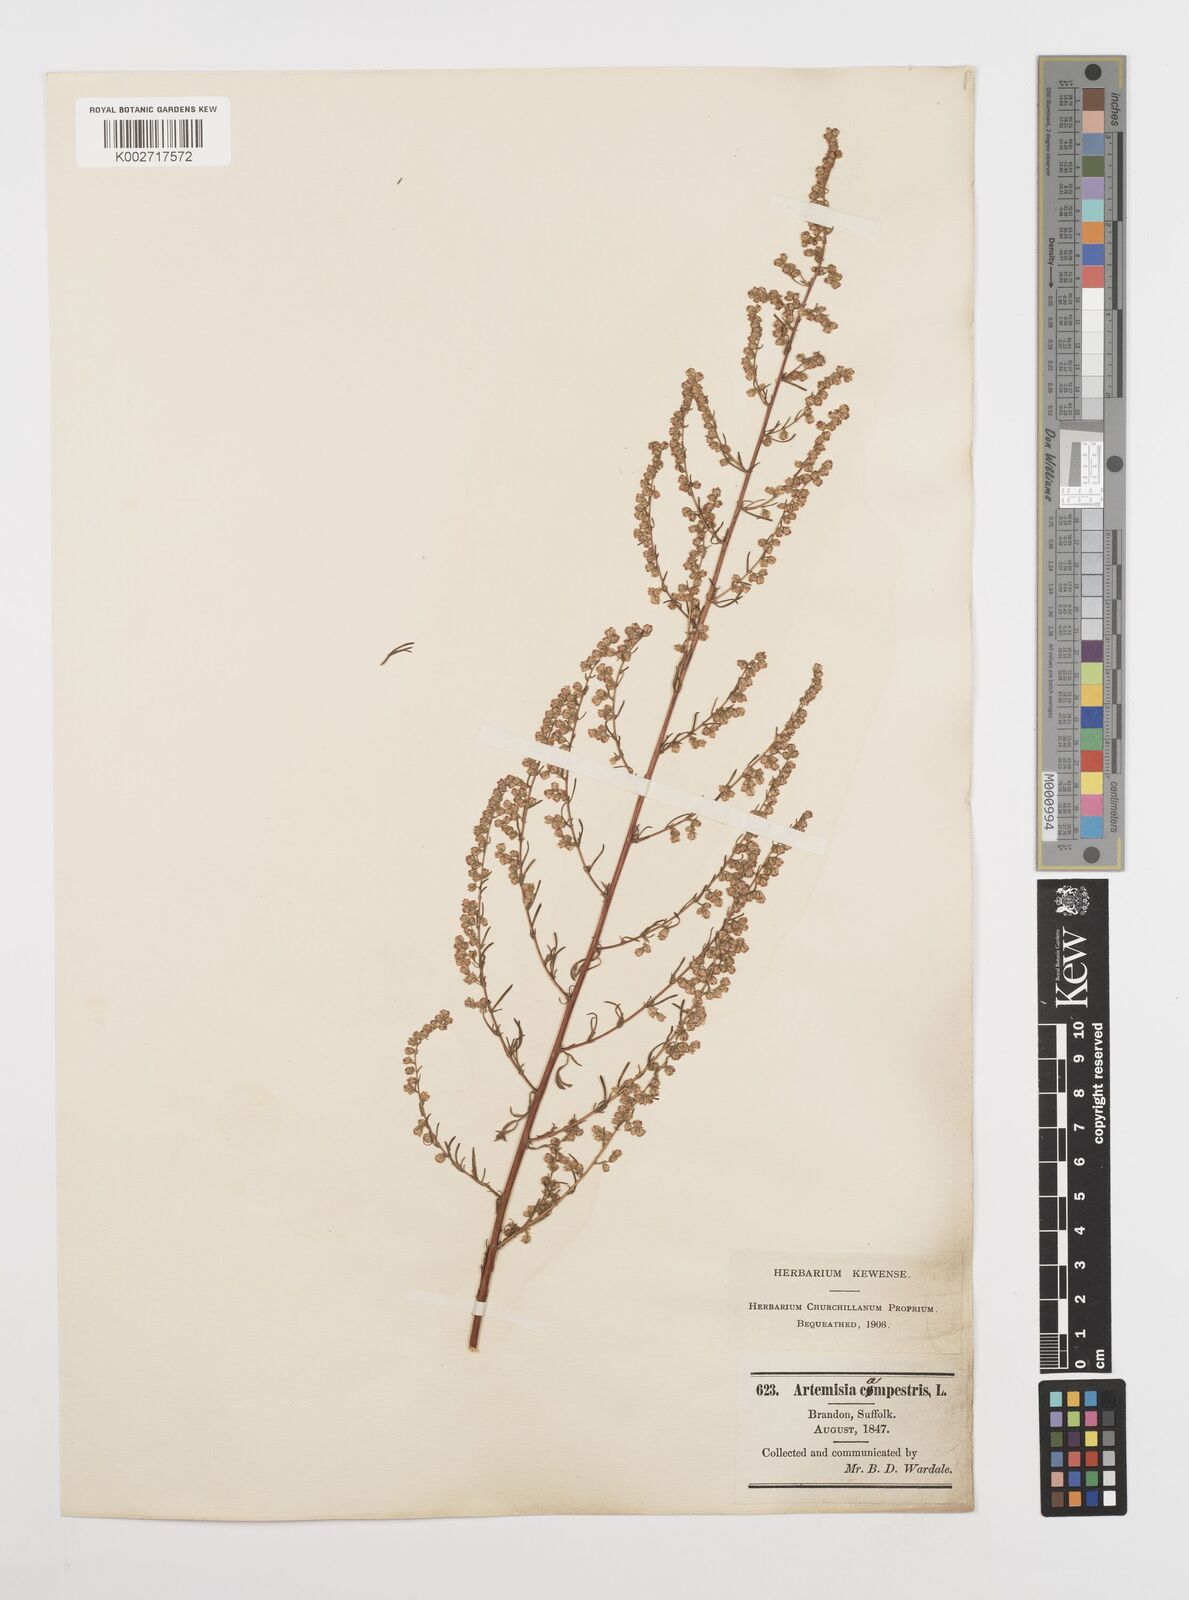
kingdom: Plantae
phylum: Tracheophyta
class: Magnoliopsida
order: Asterales
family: Asteraceae
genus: Artemisia
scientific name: Artemisia campestris
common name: Field wormwood
